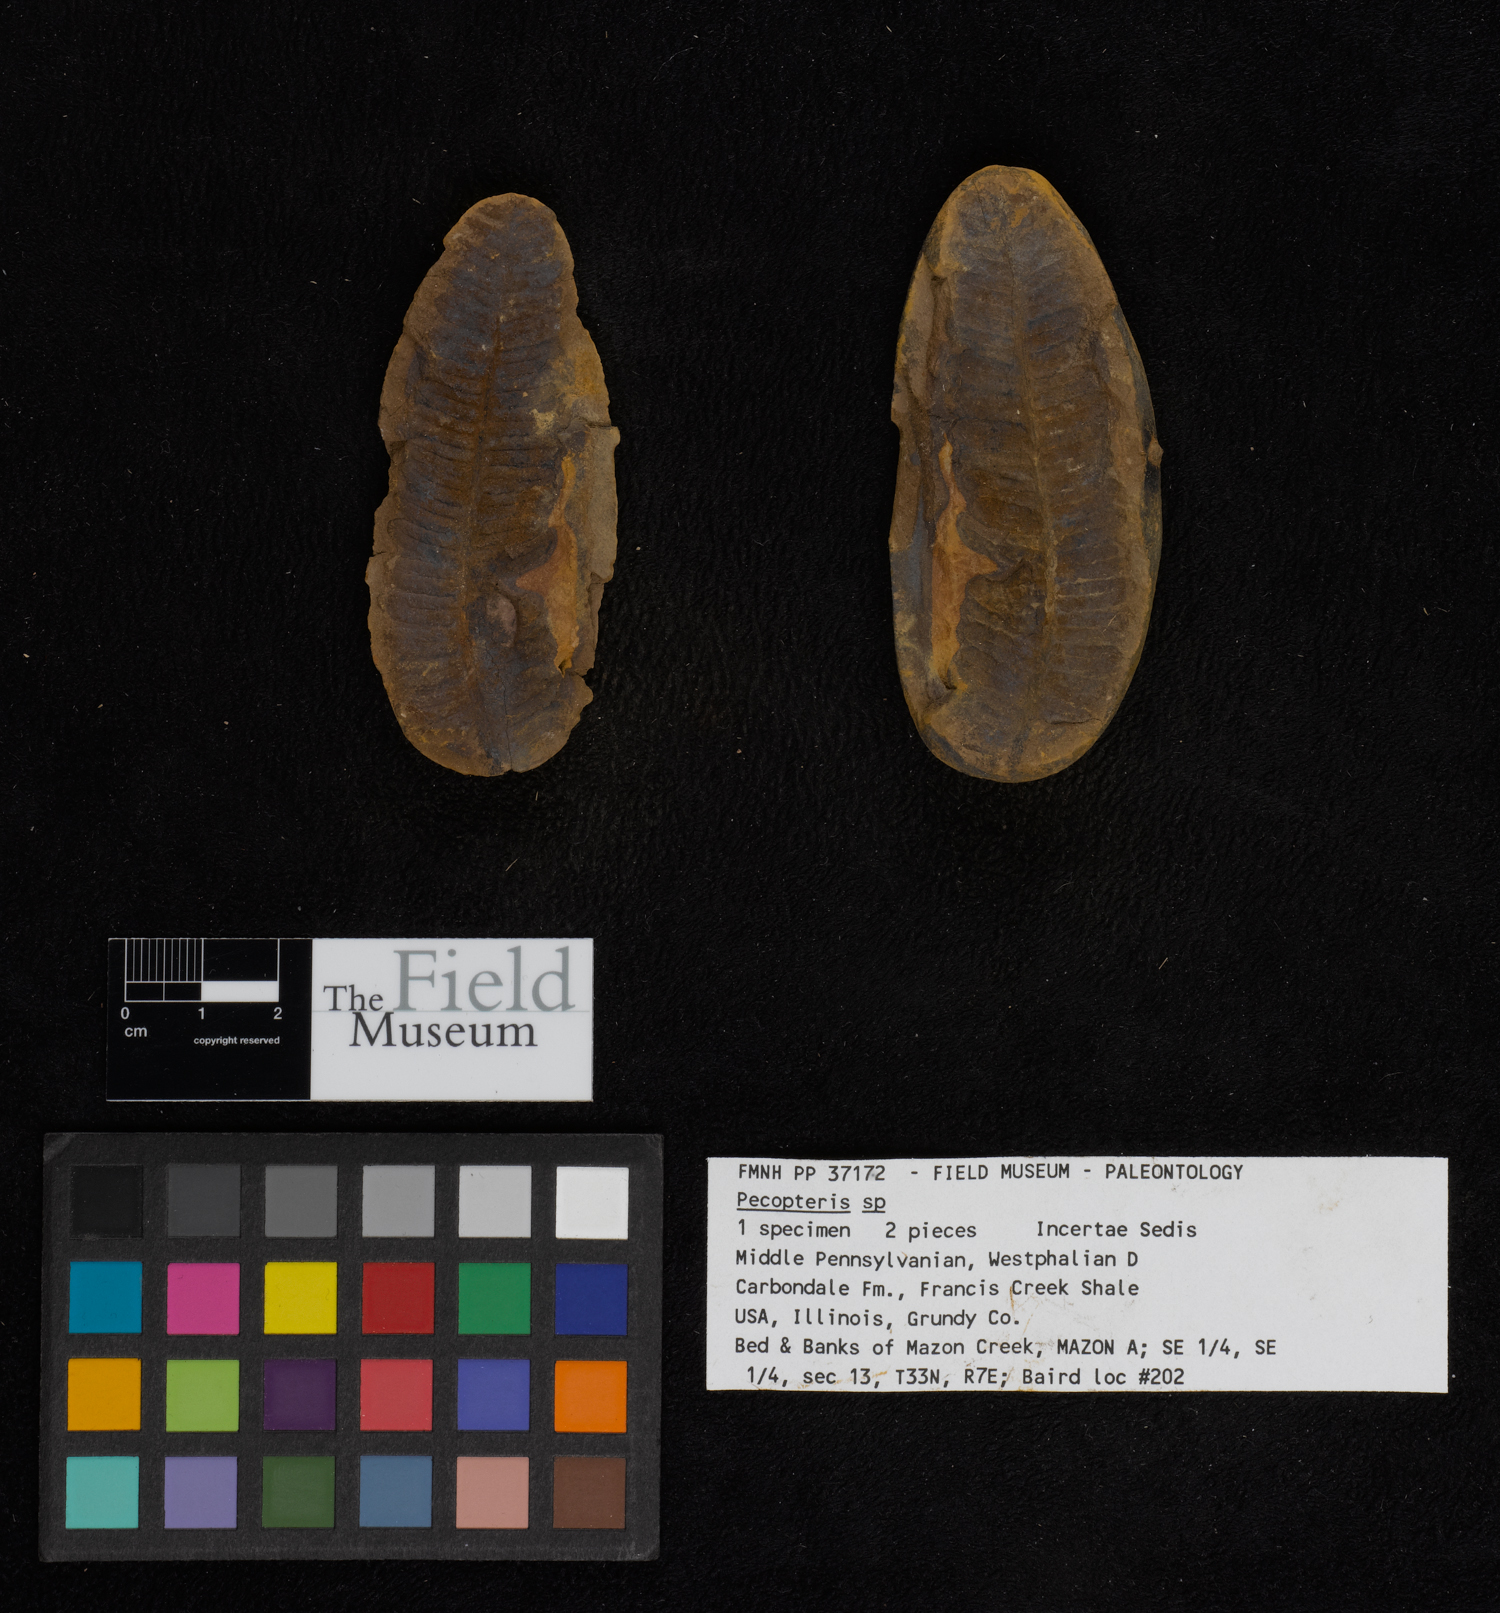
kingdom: Plantae
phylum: Tracheophyta
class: Polypodiopsida
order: Marattiales
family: Asterothecaceae
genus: Pecopteris
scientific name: Pecopteris
